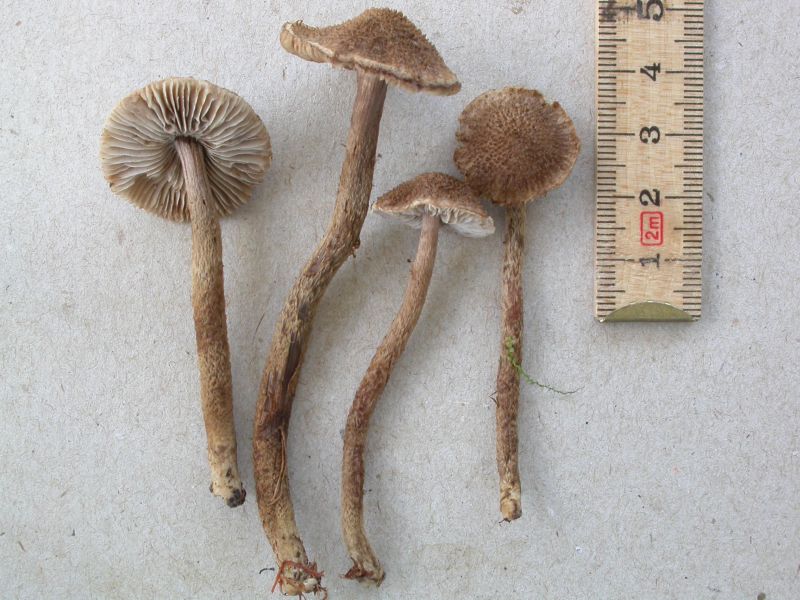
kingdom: Fungi
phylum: Basidiomycota
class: Agaricomycetes
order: Agaricales
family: Inocybaceae
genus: Inocybe
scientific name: Inocybe stellatospora
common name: spidsskællet trævlhat
